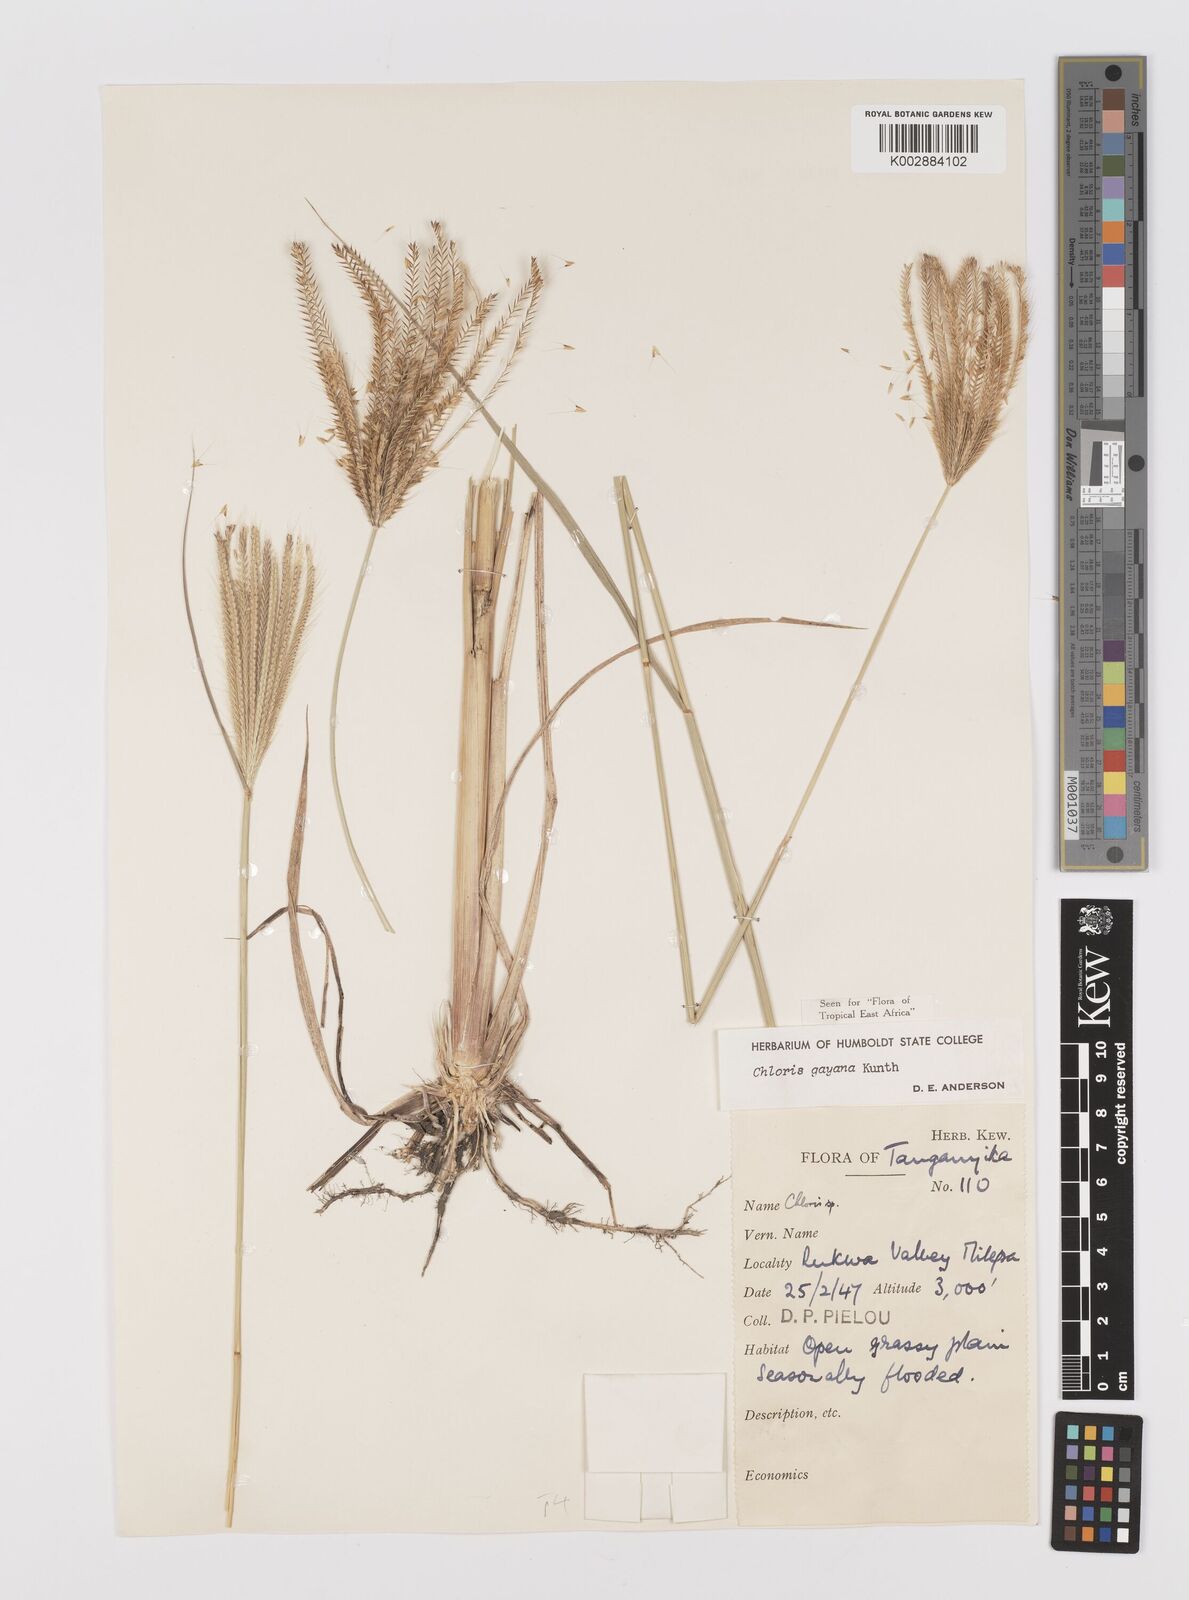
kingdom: Plantae
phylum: Tracheophyta
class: Liliopsida
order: Poales
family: Poaceae
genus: Chloris
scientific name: Chloris gayana
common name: Rhodes grass
